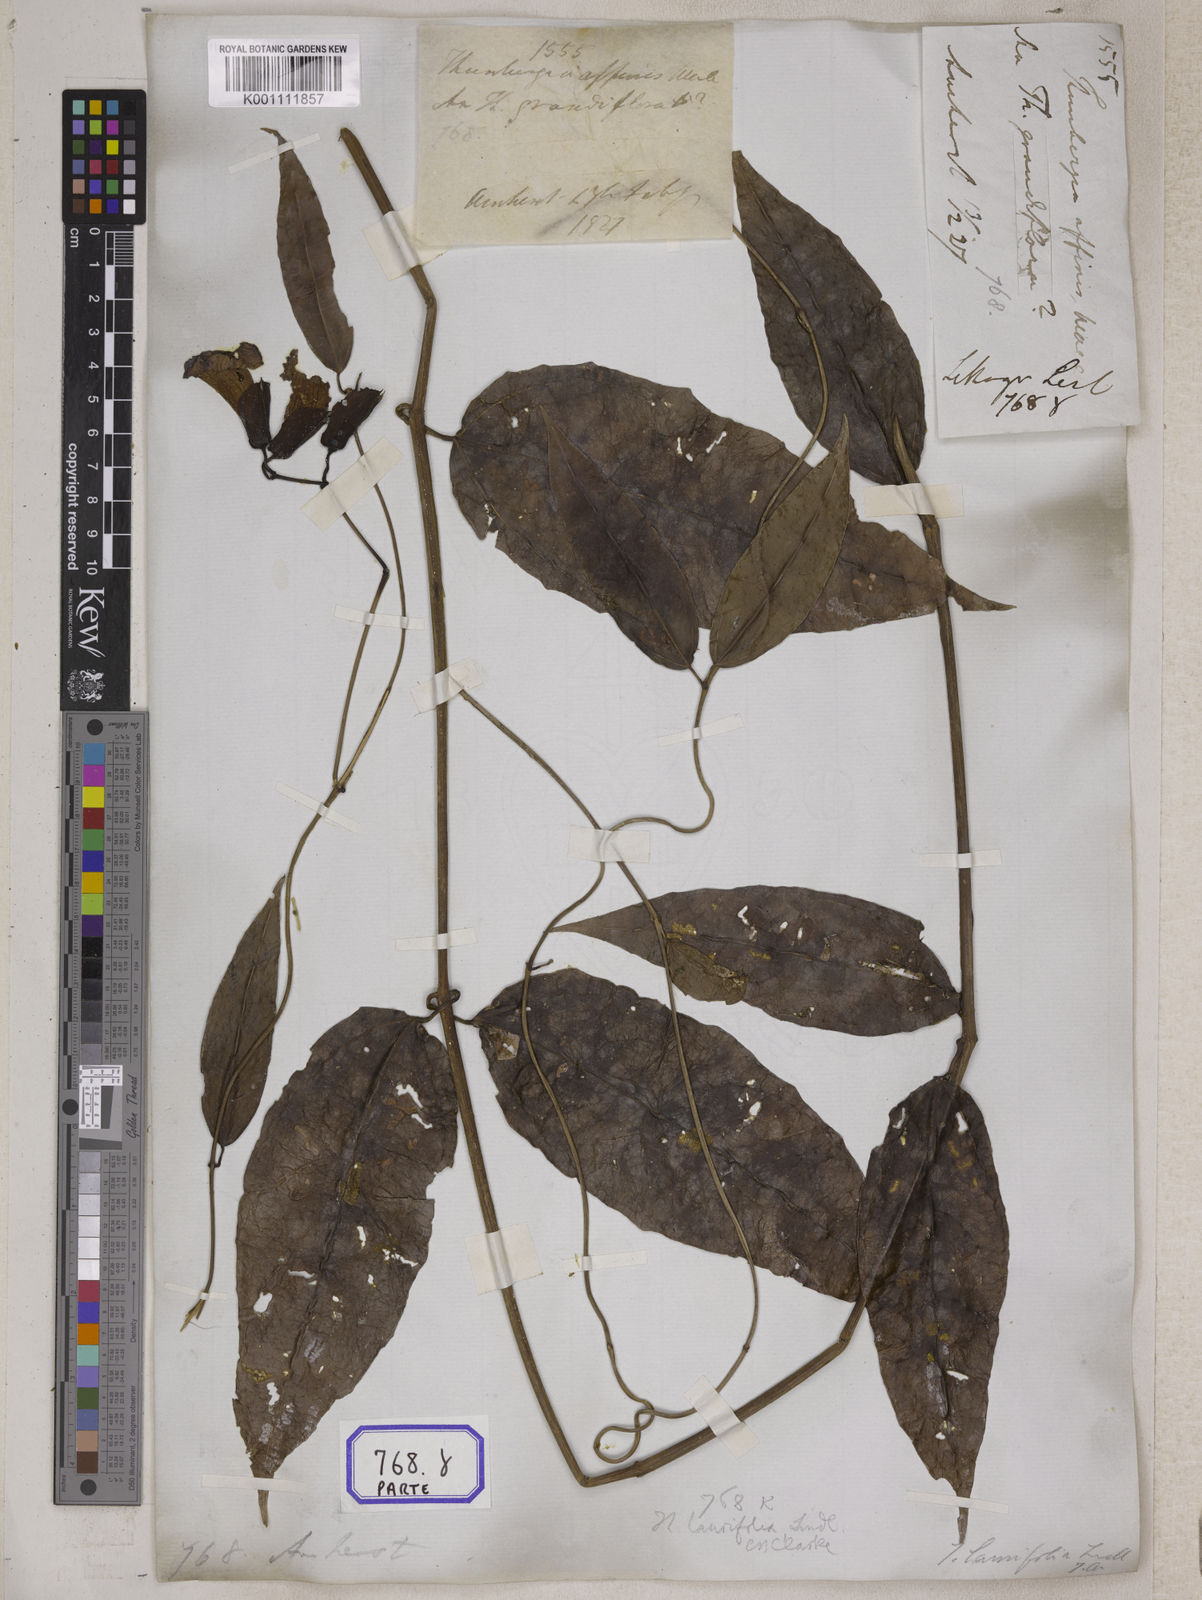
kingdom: Plantae
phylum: Tracheophyta
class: Magnoliopsida
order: Lamiales
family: Acanthaceae
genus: Thunbergia
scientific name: Thunbergia
